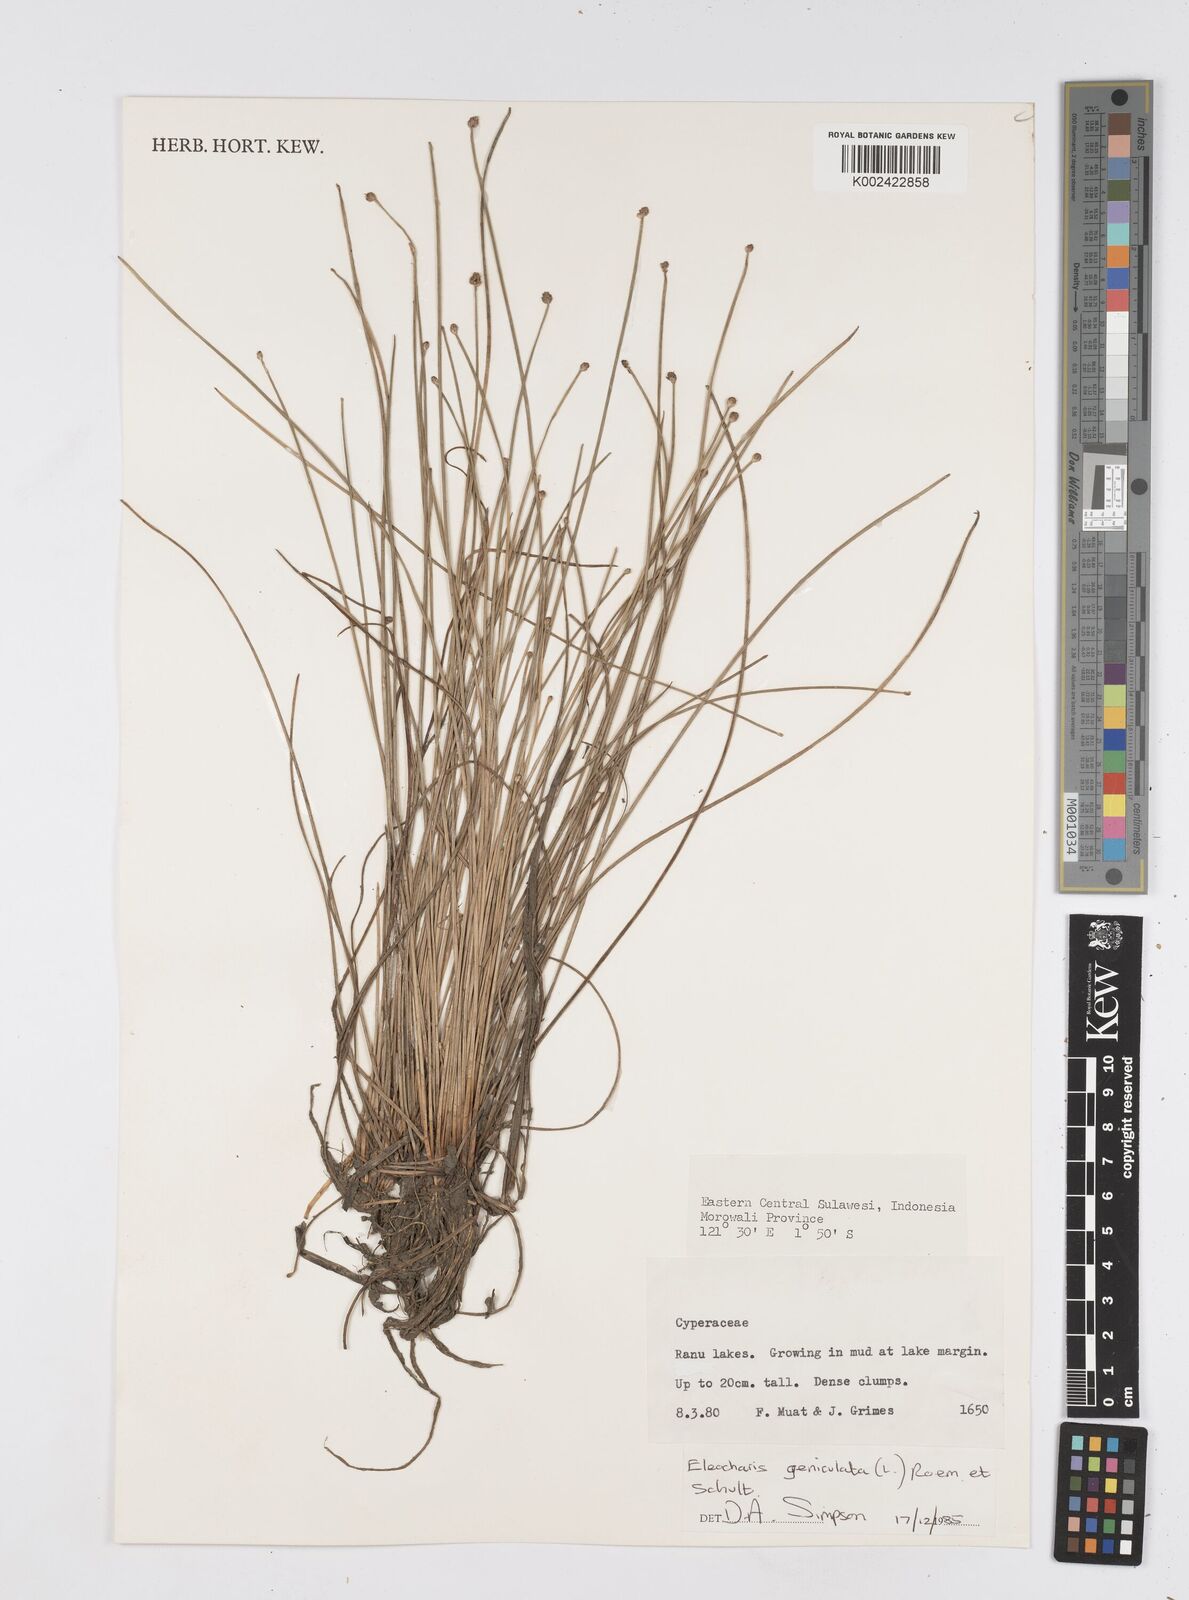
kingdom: Plantae
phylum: Tracheophyta
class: Liliopsida
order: Poales
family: Cyperaceae
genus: Eleocharis
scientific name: Eleocharis geniculata
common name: Canada spikesedge
